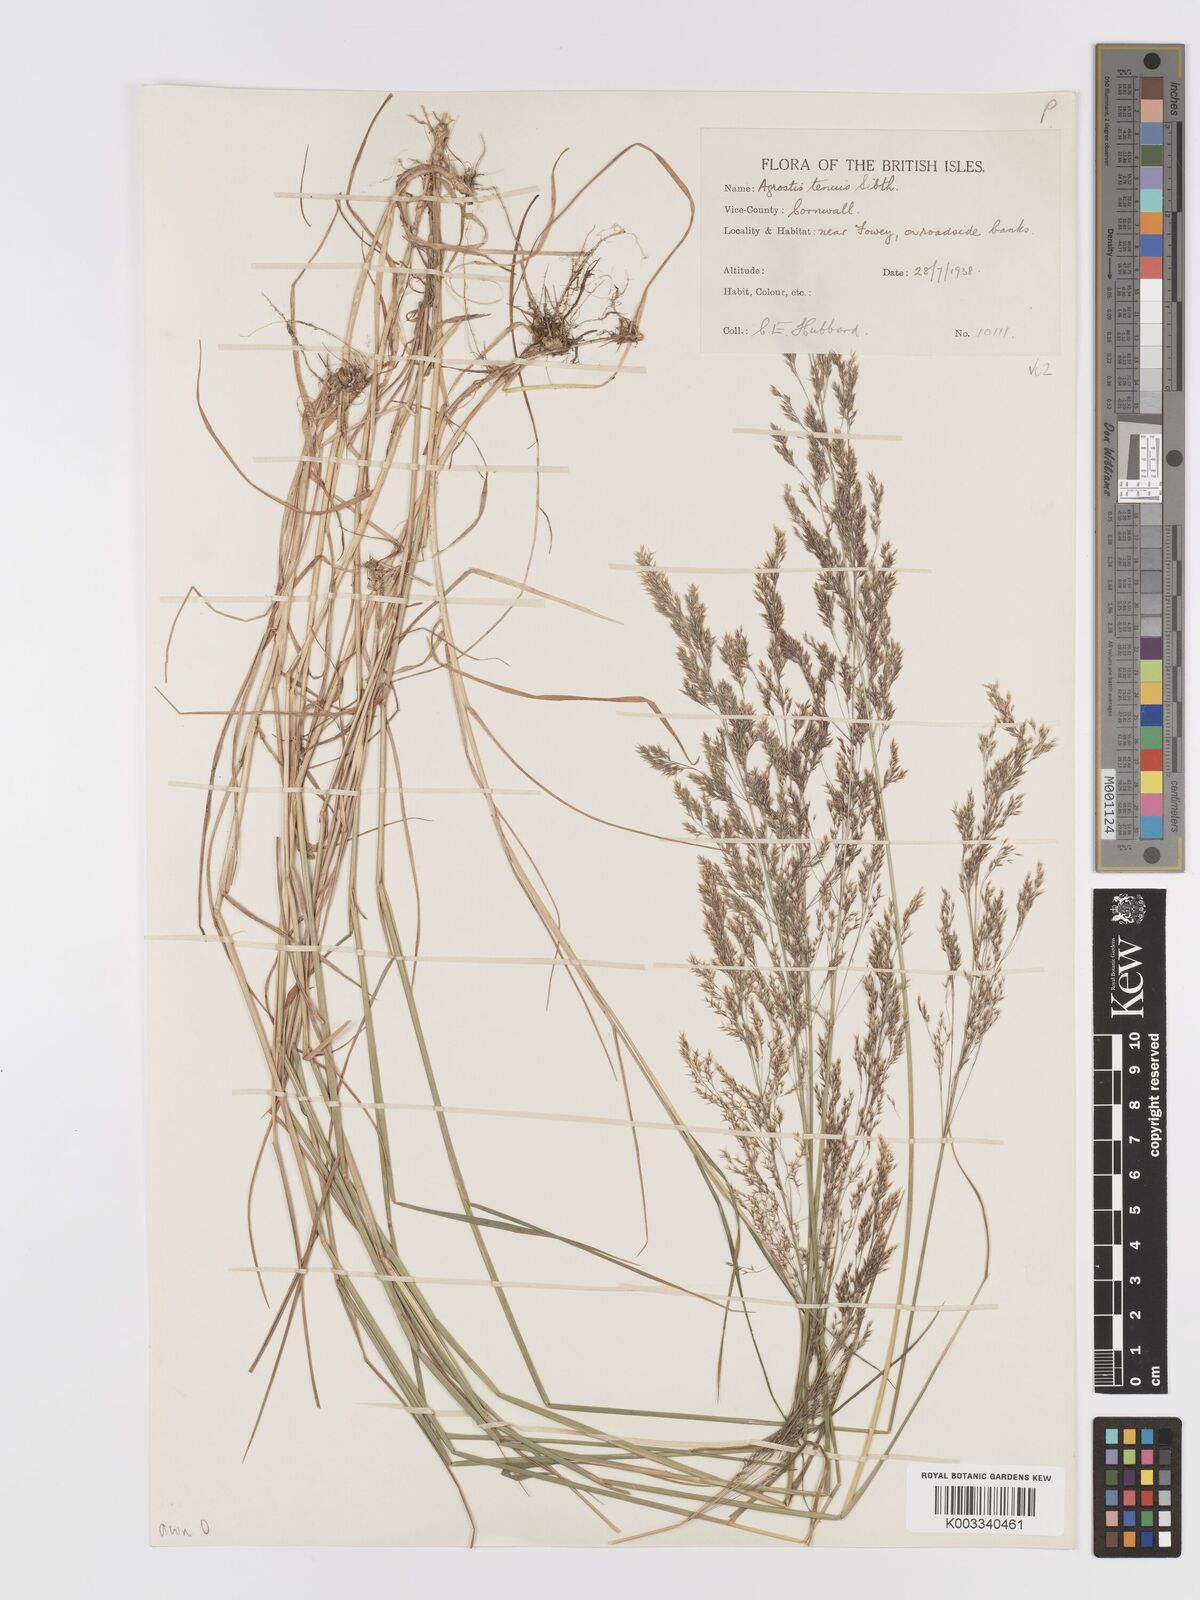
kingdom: Plantae
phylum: Tracheophyta
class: Liliopsida
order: Poales
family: Poaceae
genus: Agrostis
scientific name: Agrostis capillaris
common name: Colonial bentgrass
